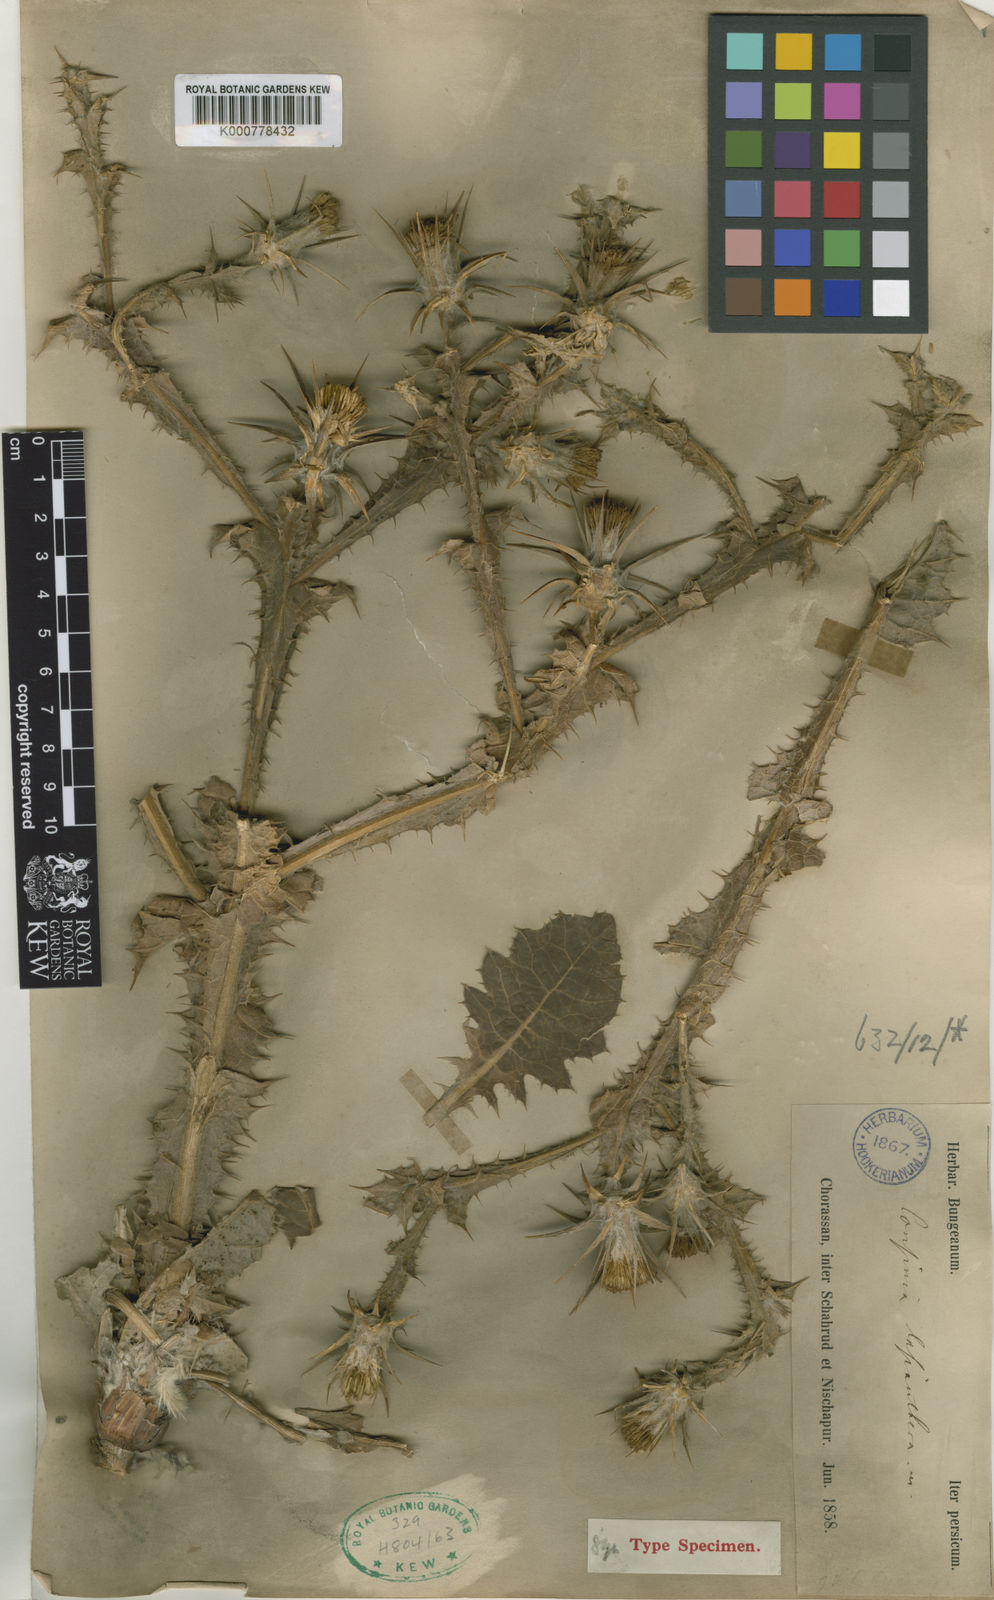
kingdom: Plantae
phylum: Tracheophyta
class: Magnoliopsida
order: Asterales
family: Asteraceae
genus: Cousinia
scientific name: Cousinia lasiandra
